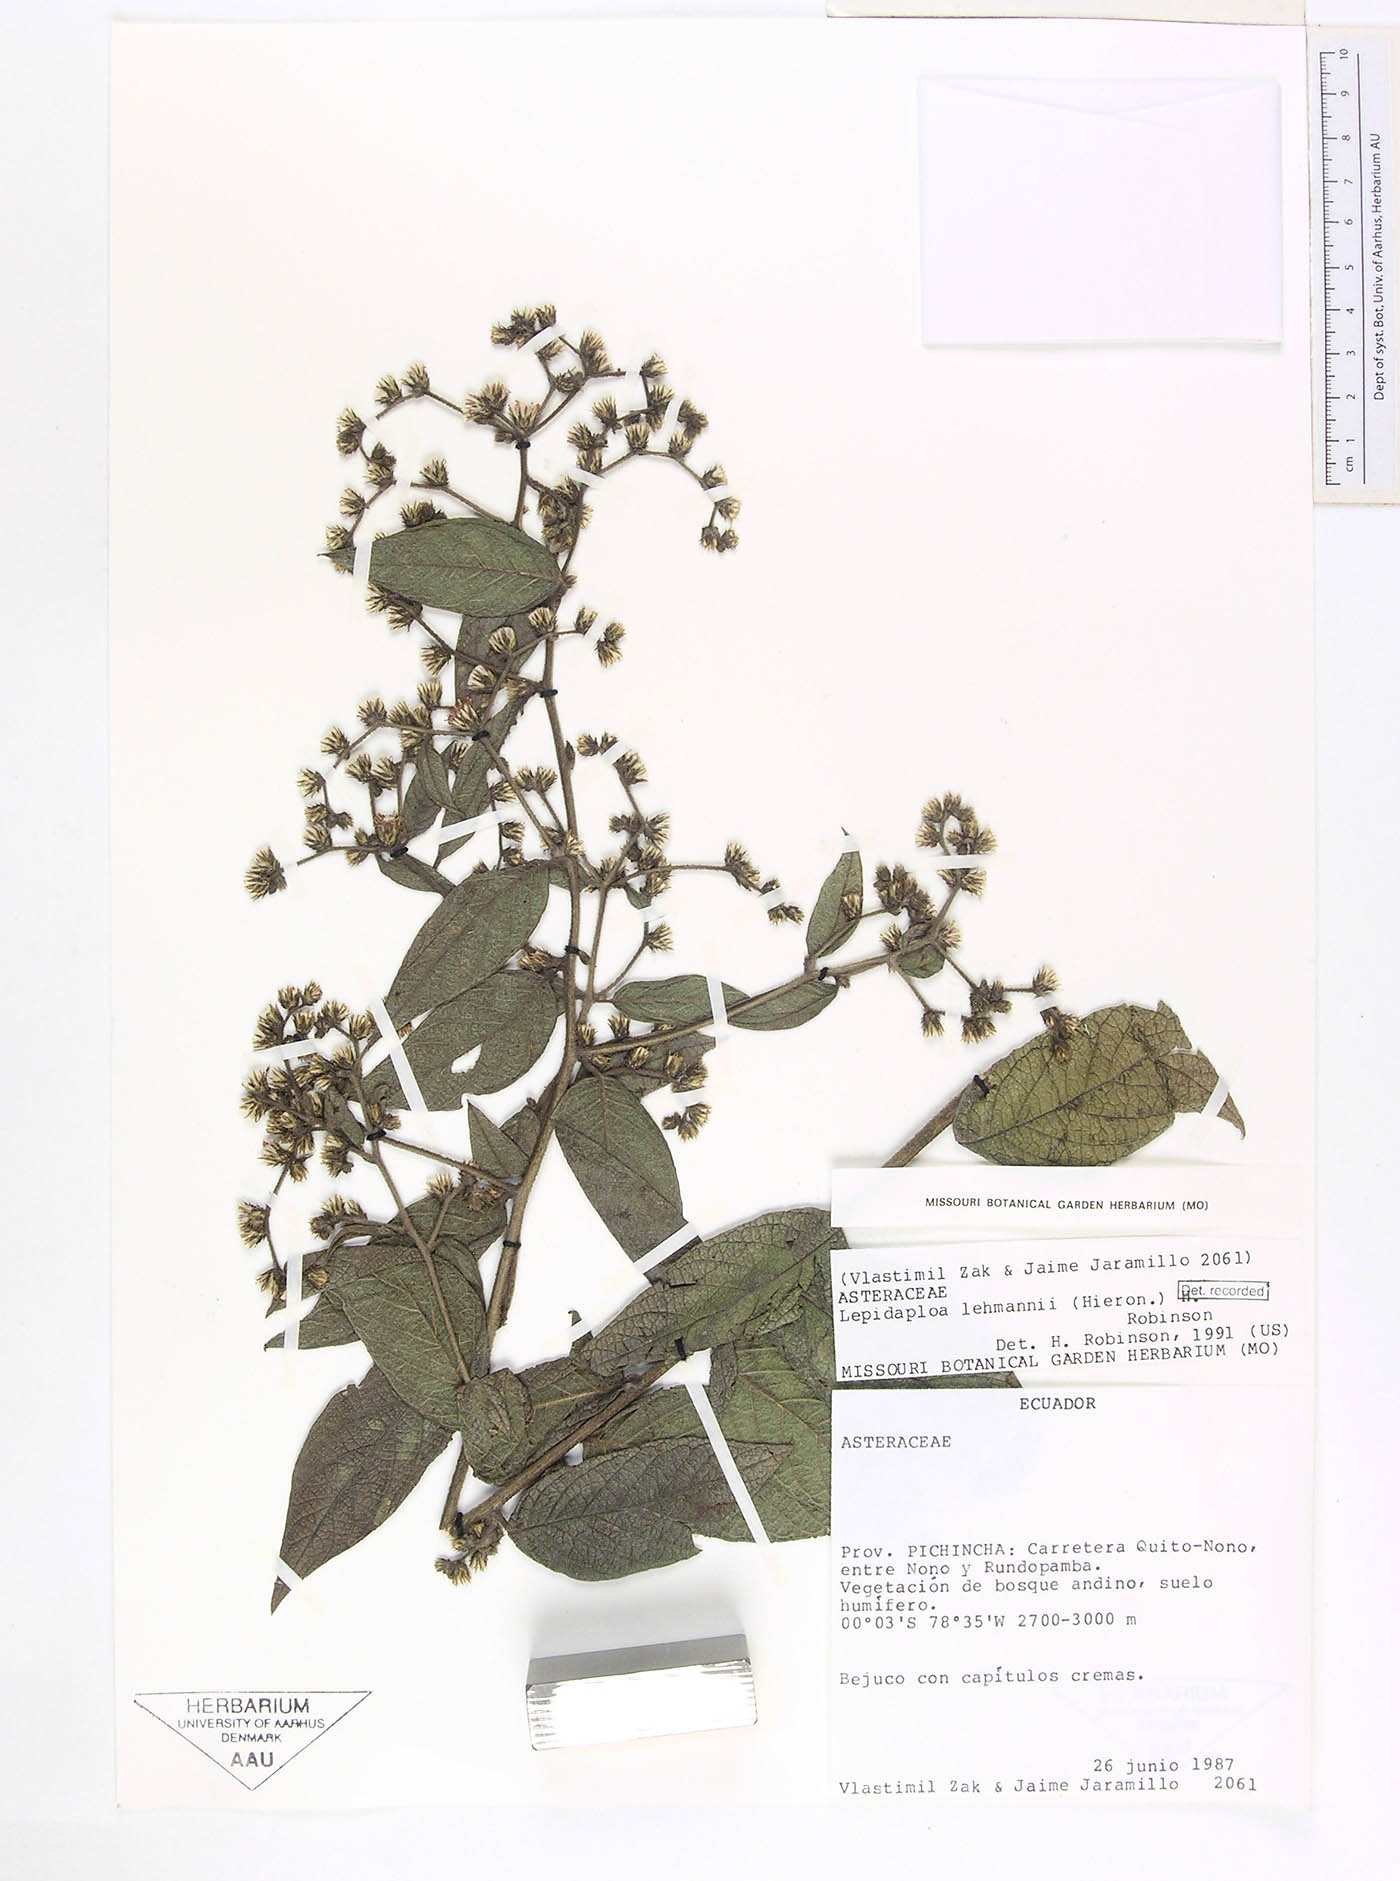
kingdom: Plantae
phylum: Tracheophyta
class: Magnoliopsida
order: Asterales
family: Asteraceae
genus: Lepidaploa
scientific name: Lepidaploa lehmannii
